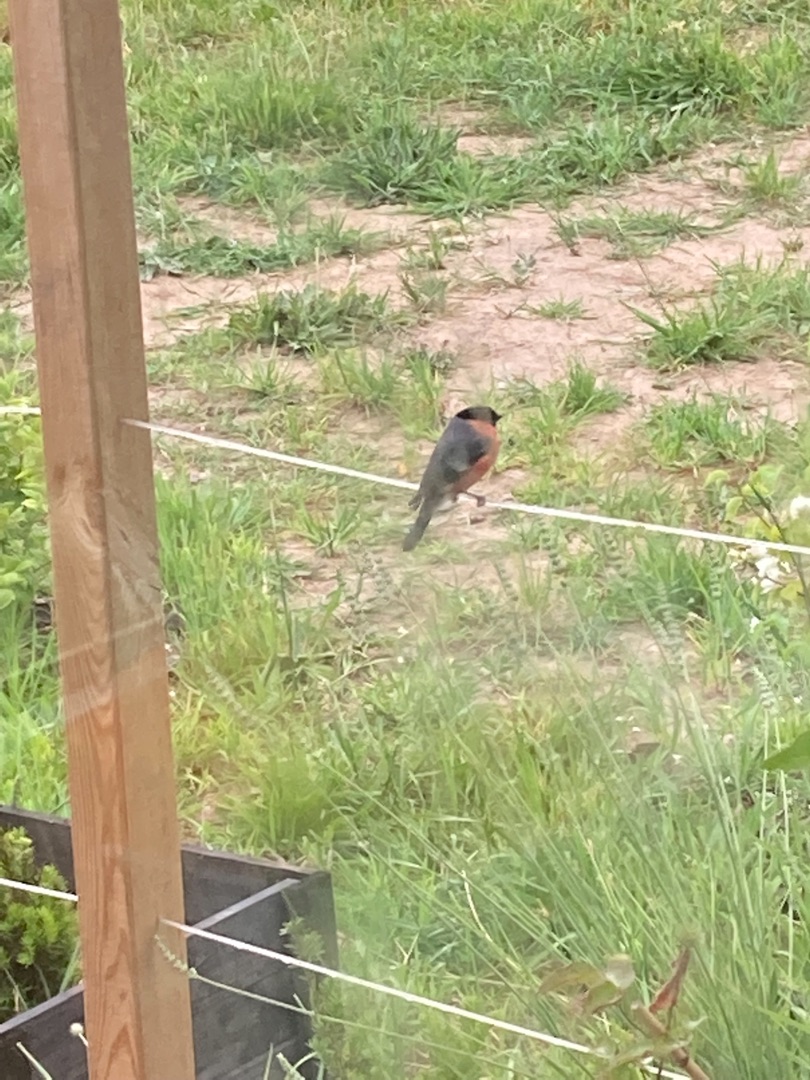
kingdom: Animalia
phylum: Chordata
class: Aves
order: Passeriformes
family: Fringillidae
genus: Pyrrhula
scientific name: Pyrrhula pyrrhula
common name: Dompap
